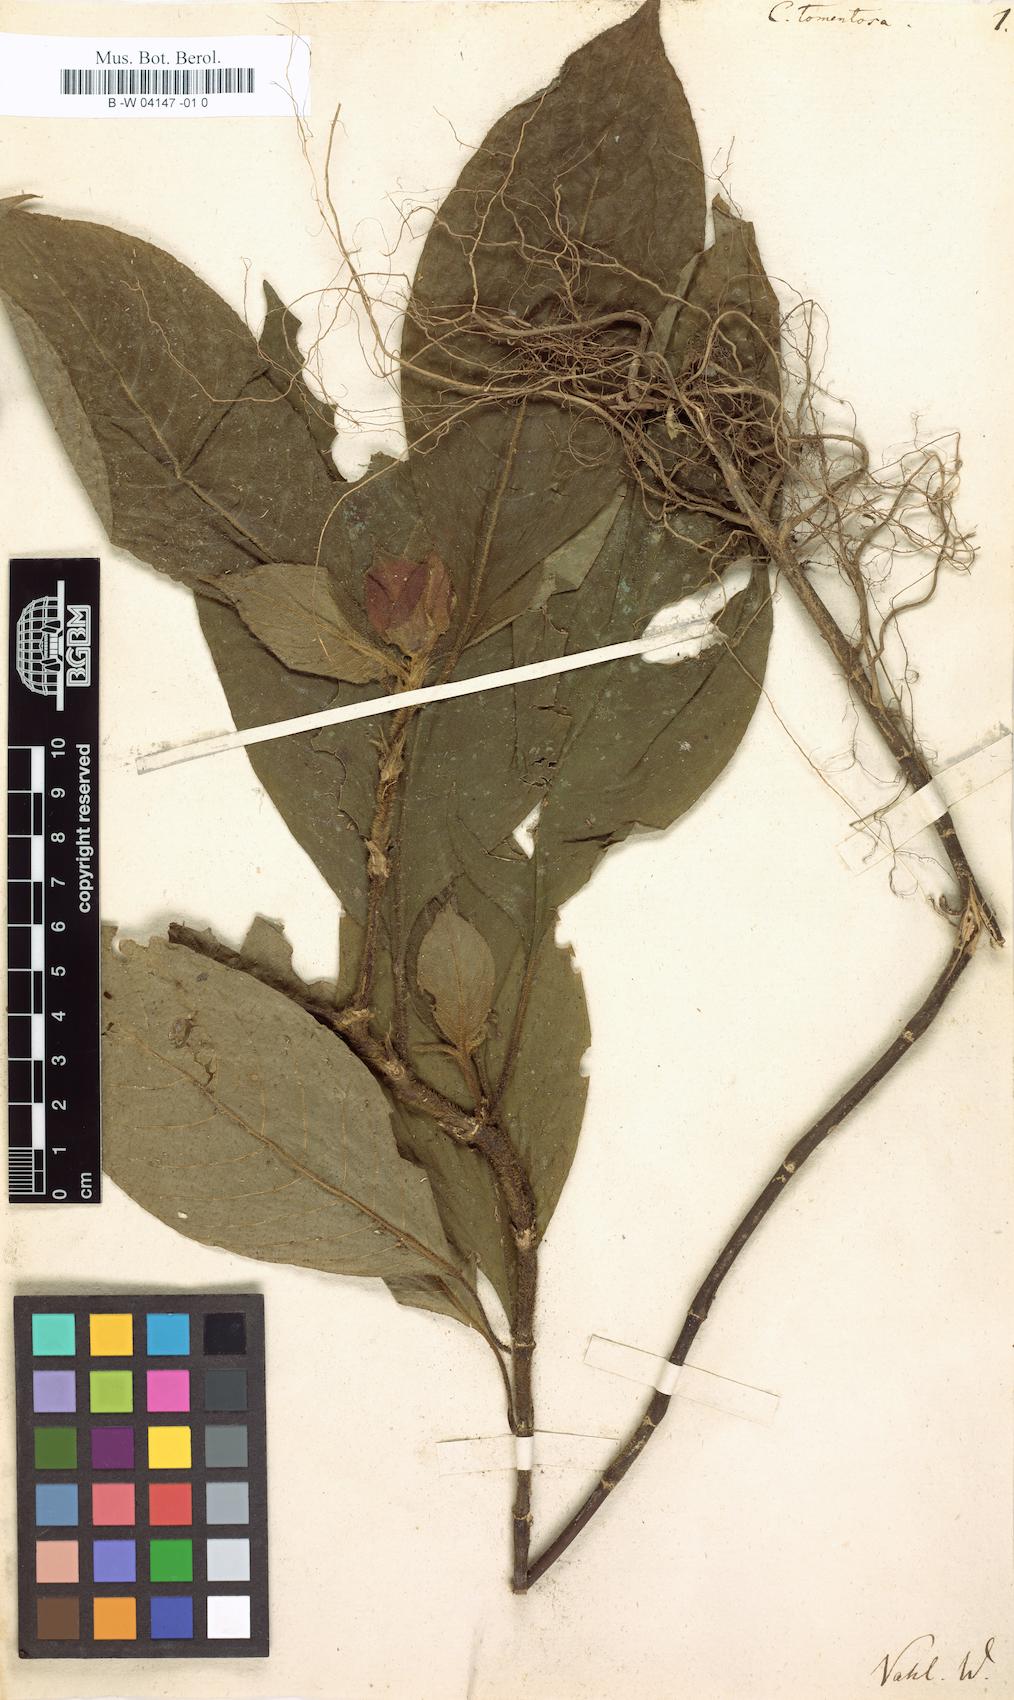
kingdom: Plantae
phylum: Tracheophyta
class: Magnoliopsida
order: Gentianales
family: Rubiaceae
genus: Palicourea
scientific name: Palicourea tomentosa
